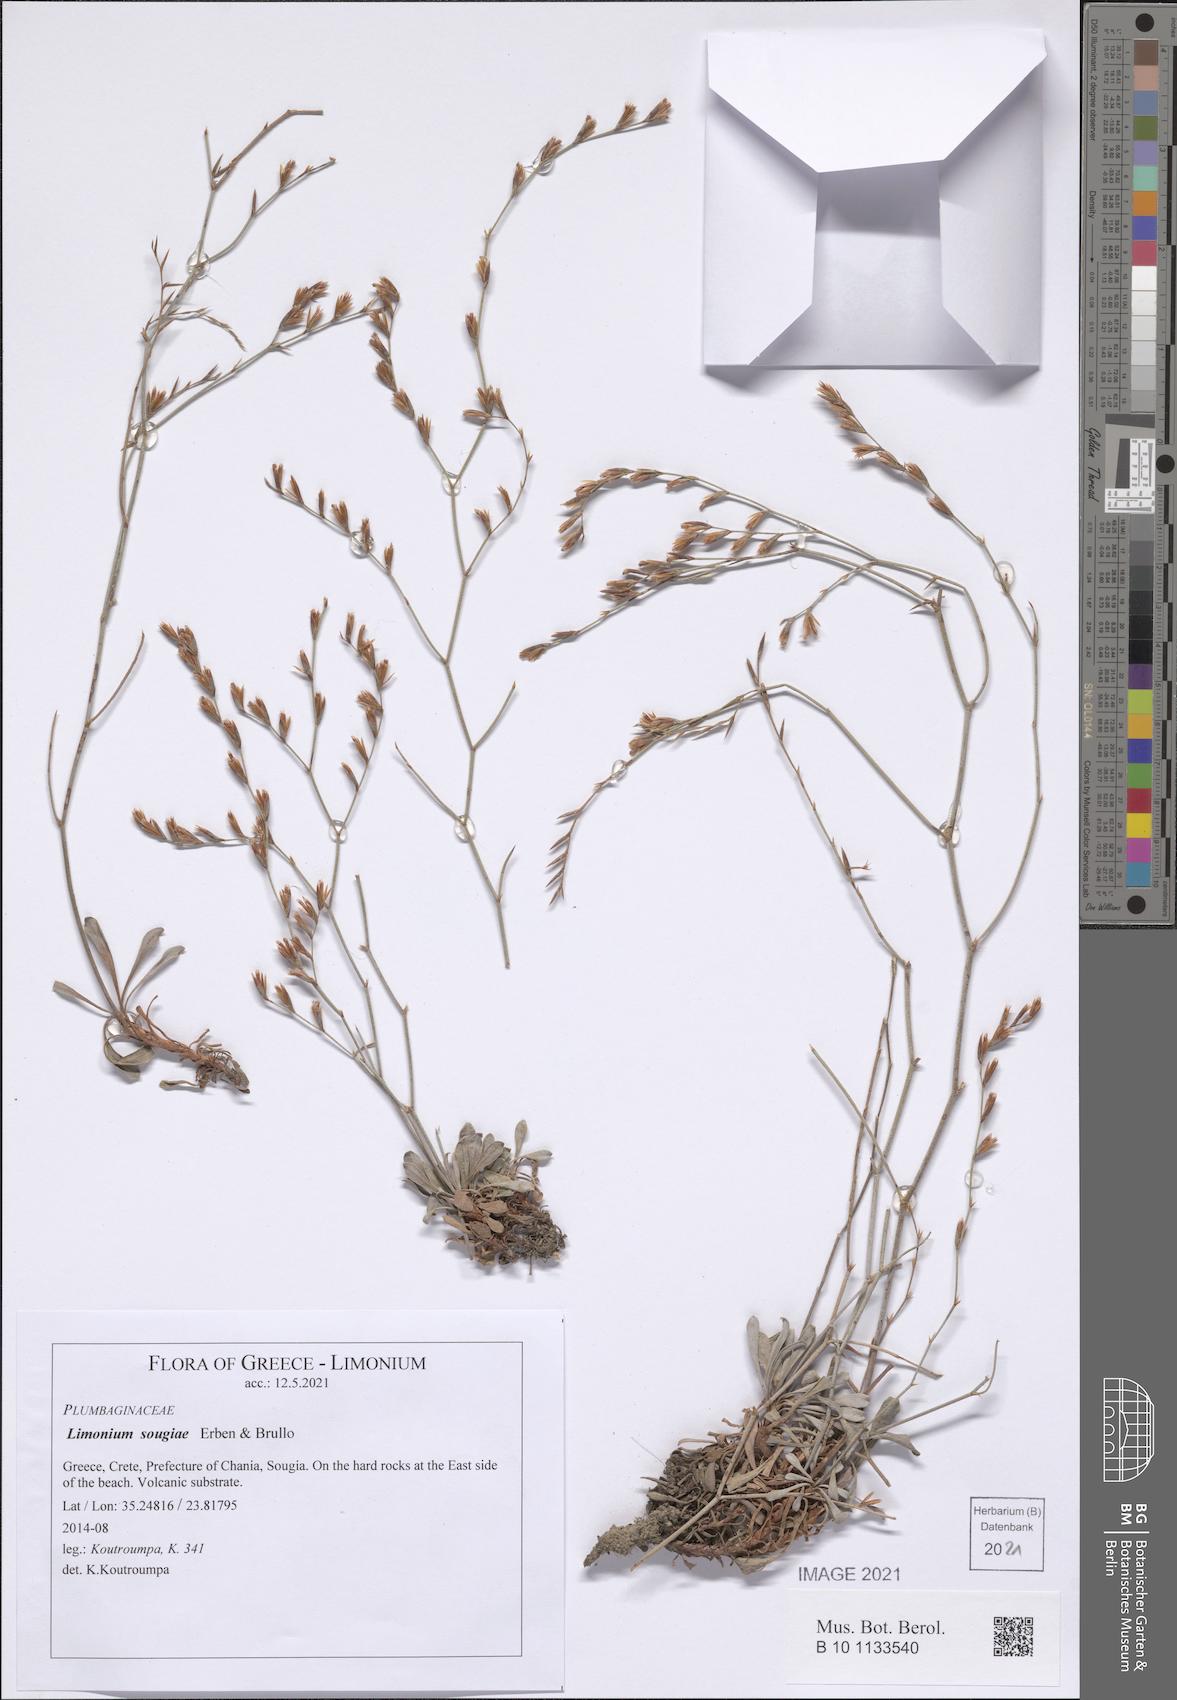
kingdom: Plantae
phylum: Tracheophyta
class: Magnoliopsida
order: Caryophyllales
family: Plumbaginaceae
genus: Limonium
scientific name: Limonium sougiae
